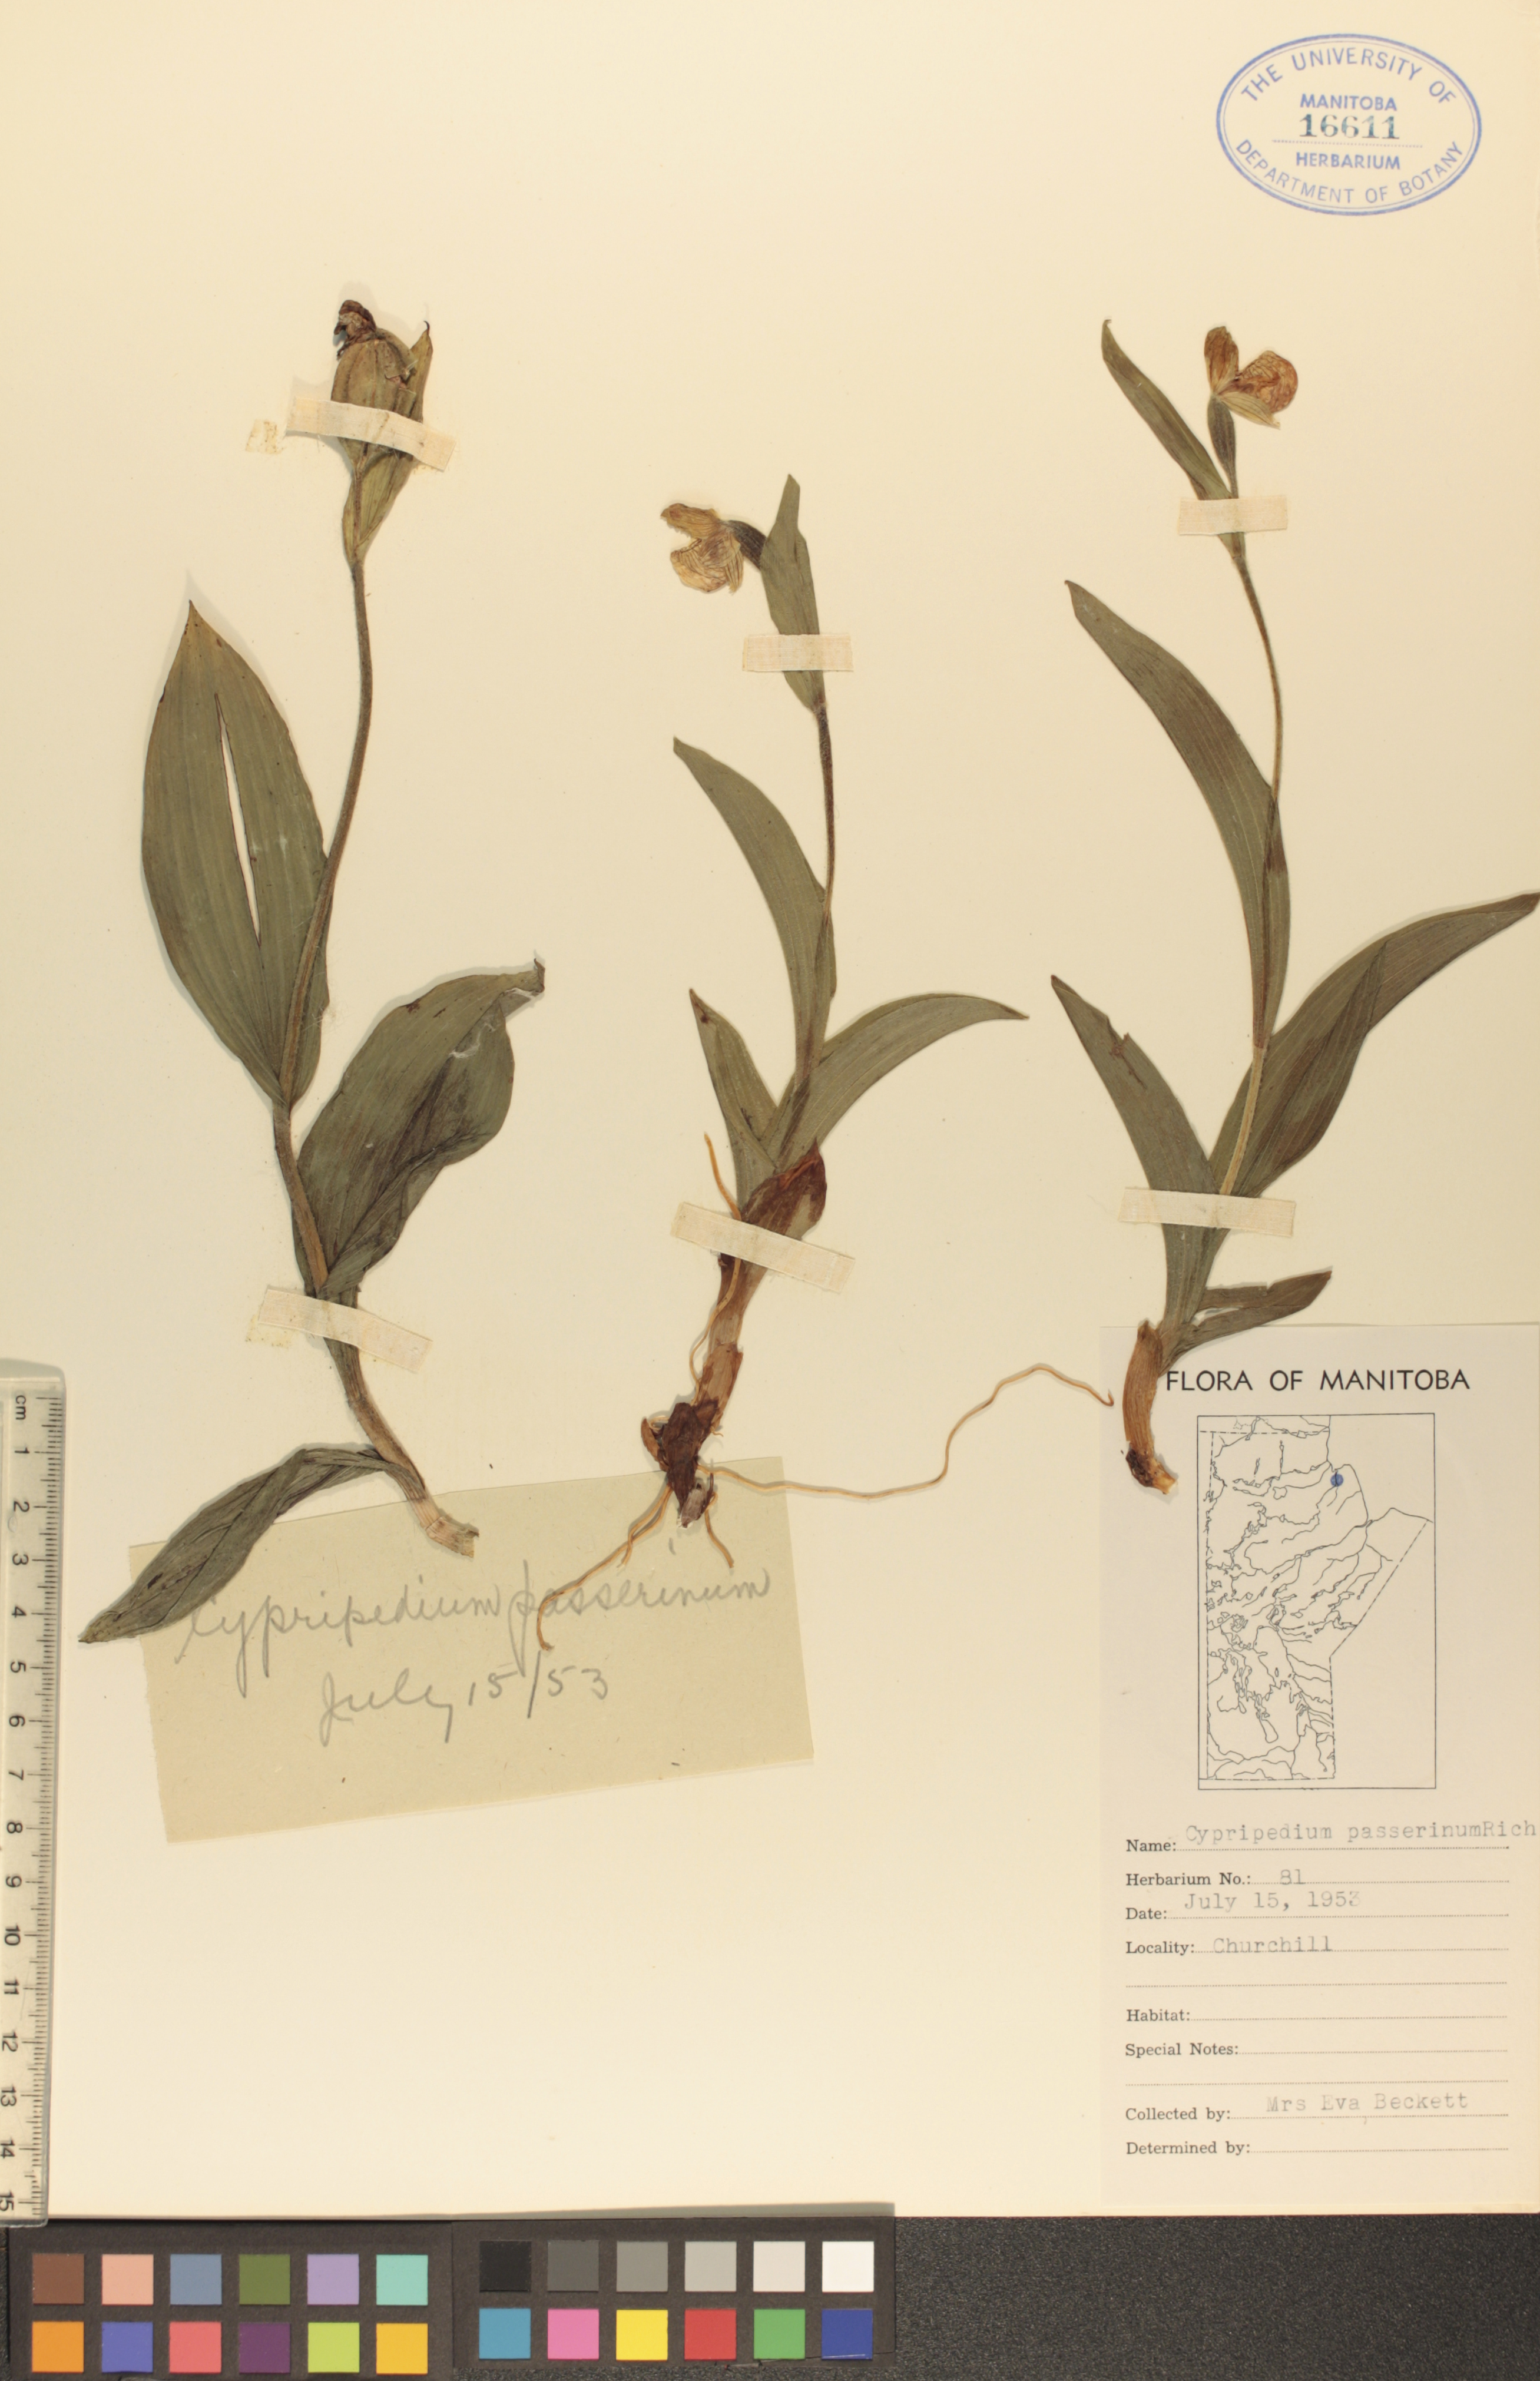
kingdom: Plantae
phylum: Tracheophyta
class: Liliopsida
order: Asparagales
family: Orchidaceae
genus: Cypripedium
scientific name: Cypripedium passerinum
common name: Sparrow's-egg lady's-slipper
